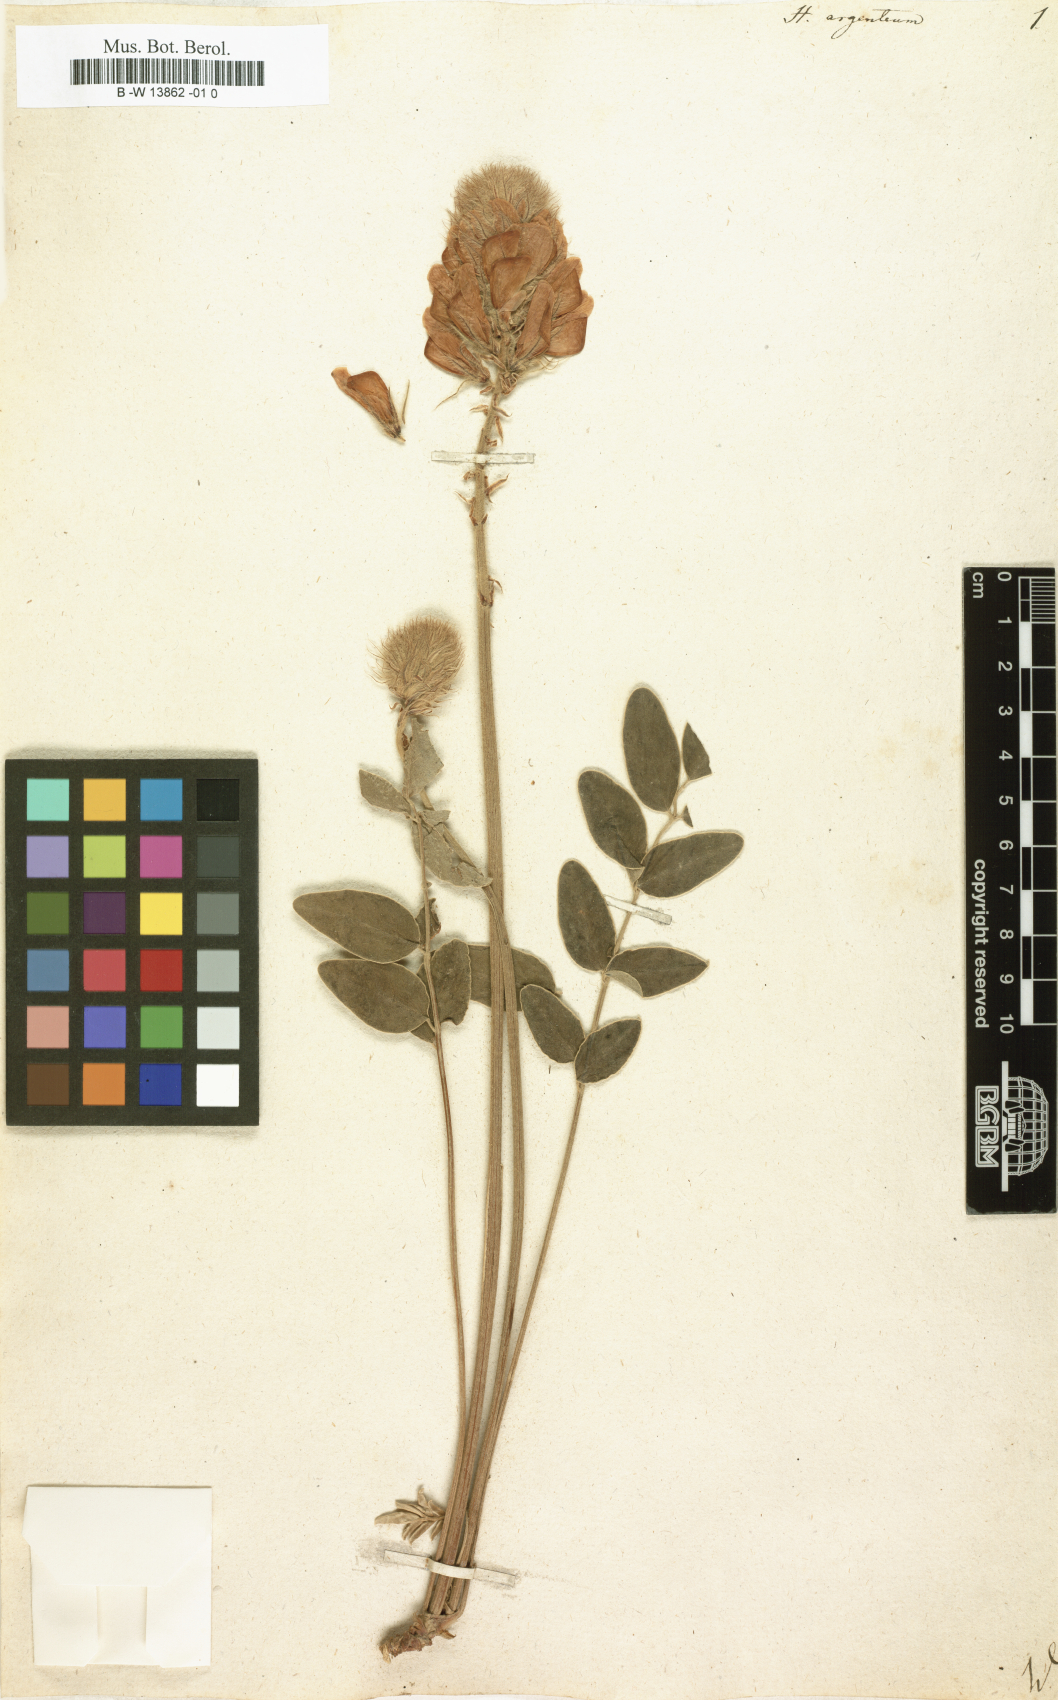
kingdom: Plantae
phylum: Tracheophyta
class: Magnoliopsida
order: Fabales
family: Fabaceae
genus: Hedysarum
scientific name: Hedysarum grandiflorum
